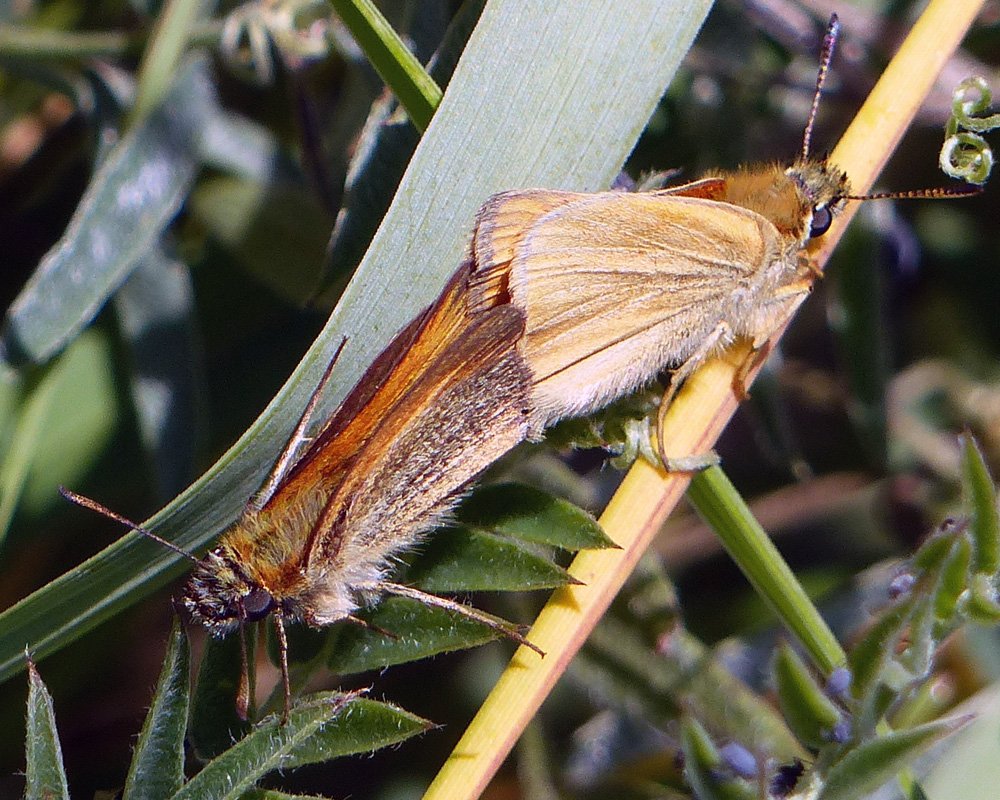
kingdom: Animalia
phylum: Arthropoda
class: Insecta
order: Lepidoptera
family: Hesperiidae
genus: Thymelicus
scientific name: Thymelicus lineola
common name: European Skipper
